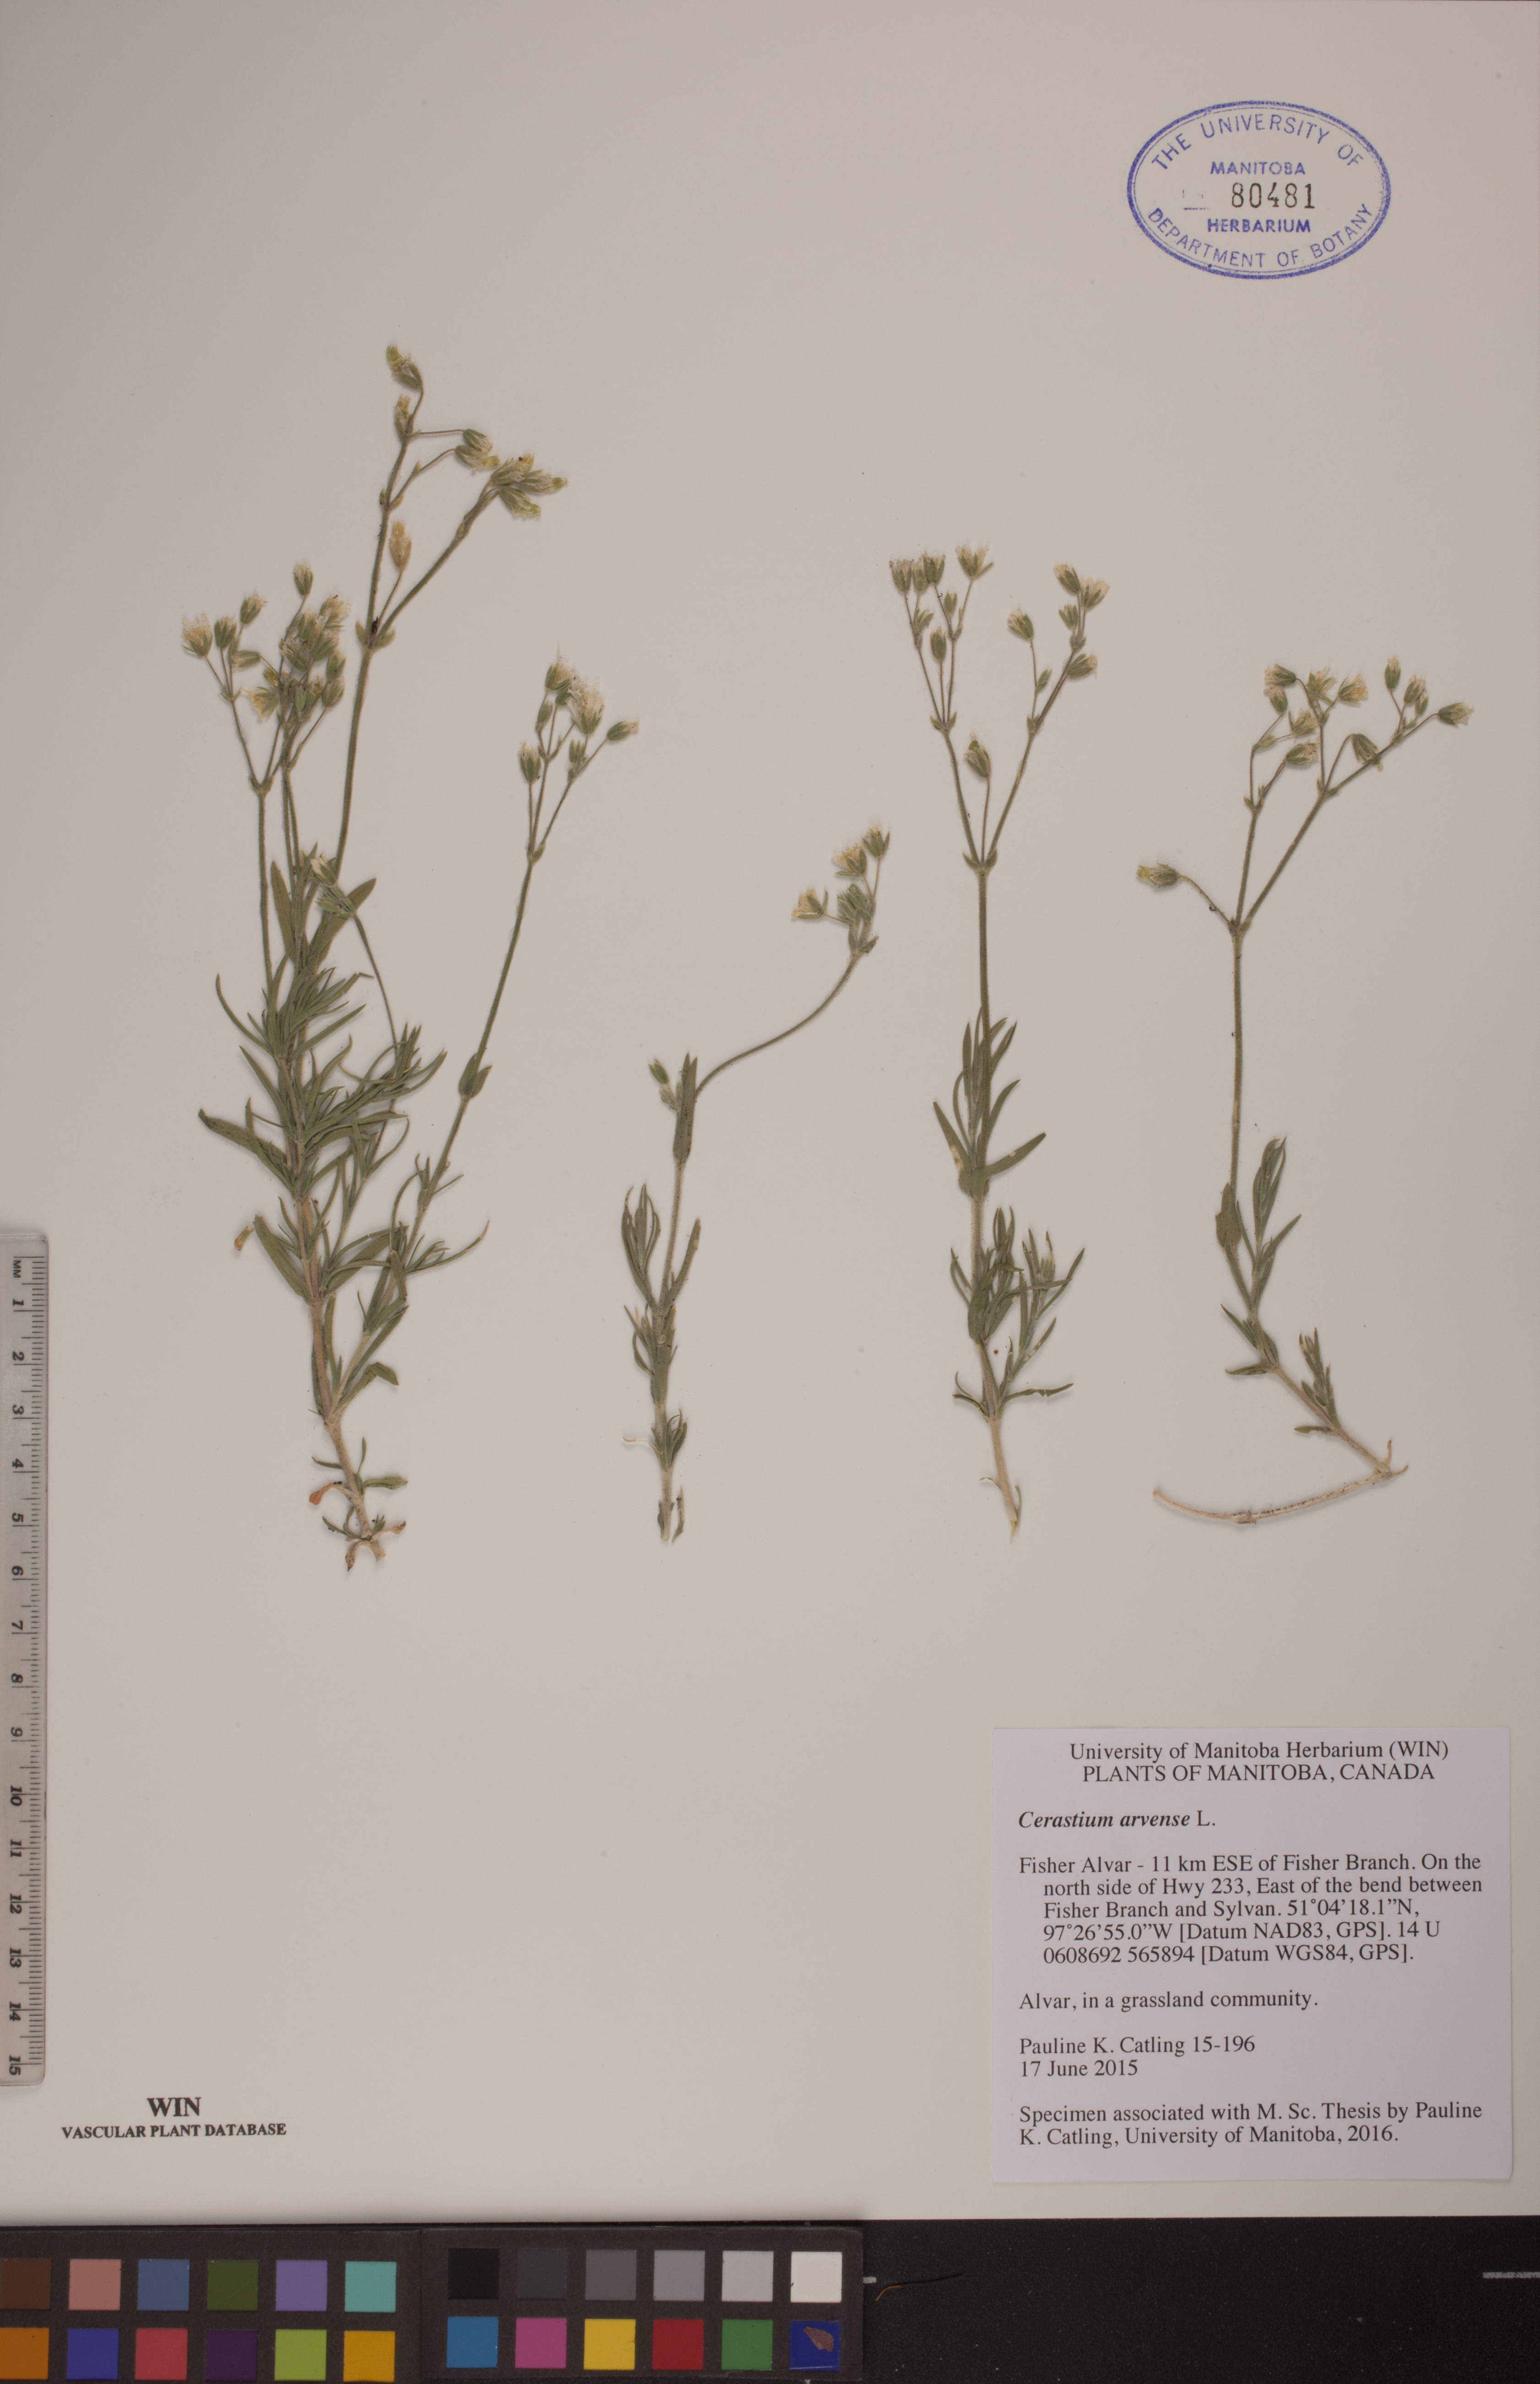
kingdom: Plantae
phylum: Tracheophyta
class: Magnoliopsida
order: Caryophyllales
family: Caryophyllaceae
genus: Cerastium
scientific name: Cerastium arvense
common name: Field mouse-ear
